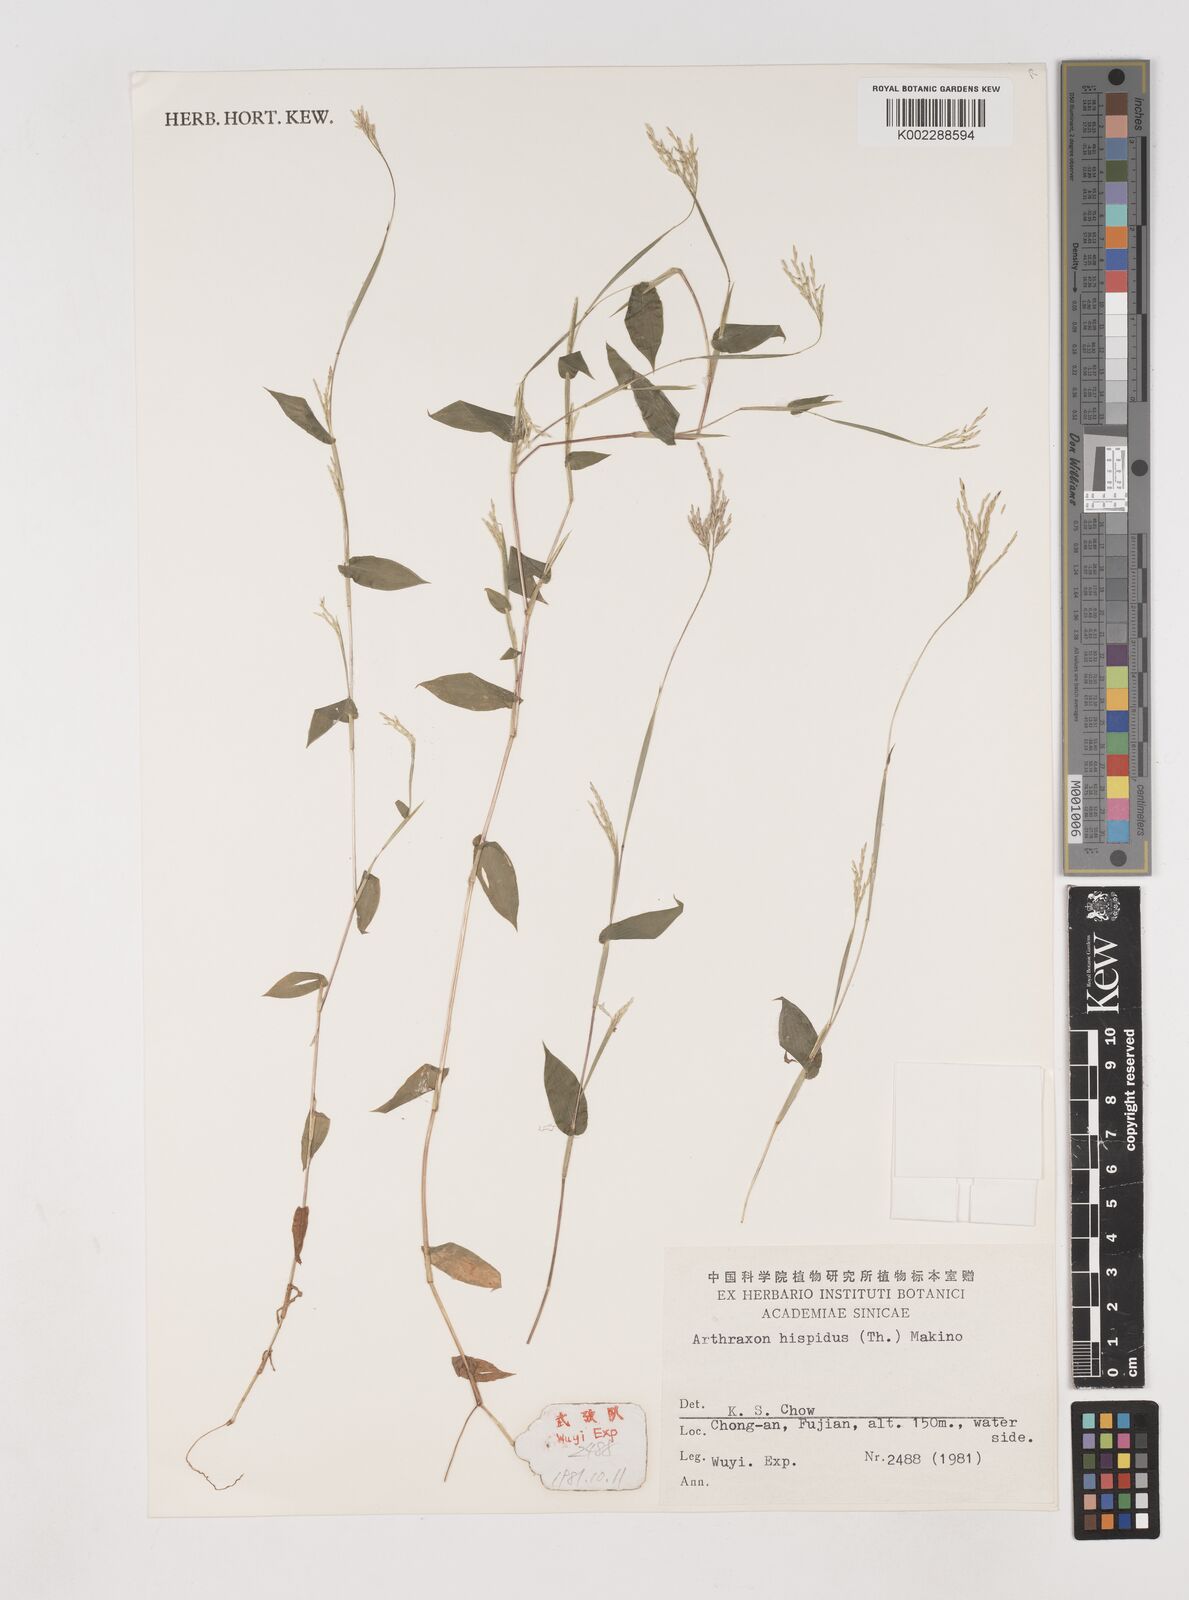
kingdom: Plantae
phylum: Tracheophyta
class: Liliopsida
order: Poales
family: Poaceae
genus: Arthraxon
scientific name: Arthraxon hispidus
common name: Small carpgrass
